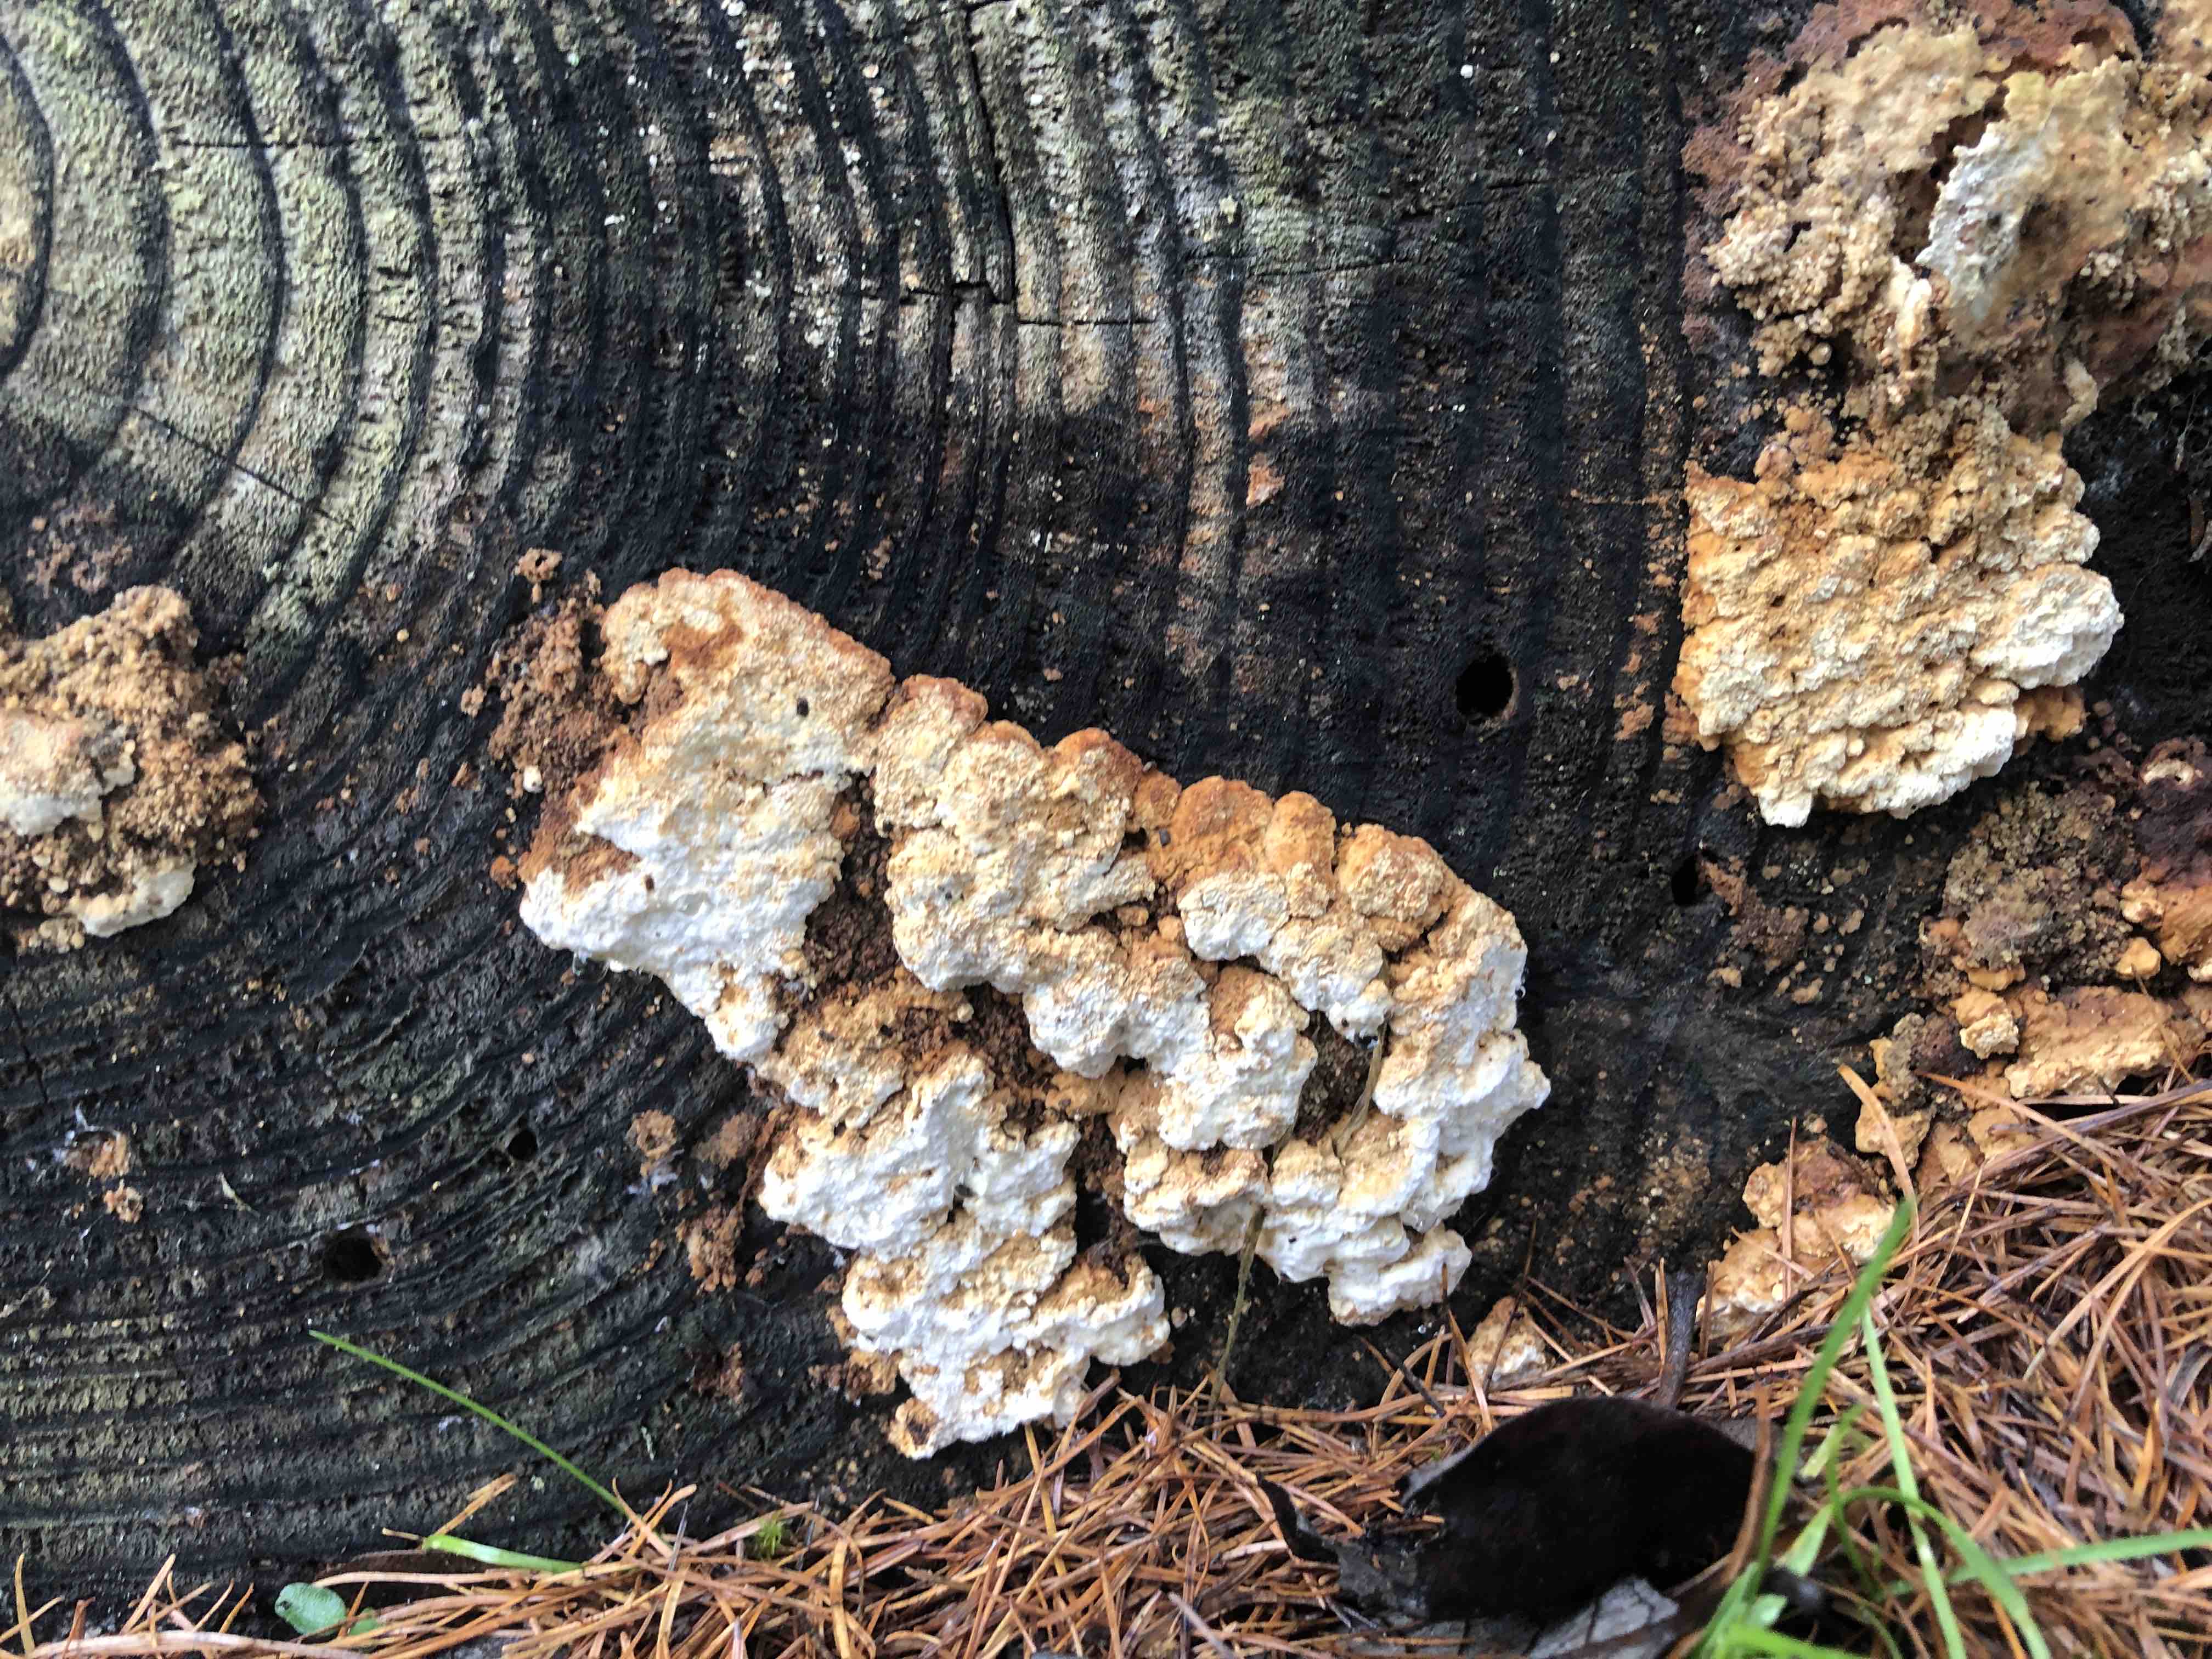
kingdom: Fungi
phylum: Basidiomycota
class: Agaricomycetes
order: Polyporales
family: Fomitopsidaceae
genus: Neoantrodia
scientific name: Neoantrodia serialis
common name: række-sejporesvamp
